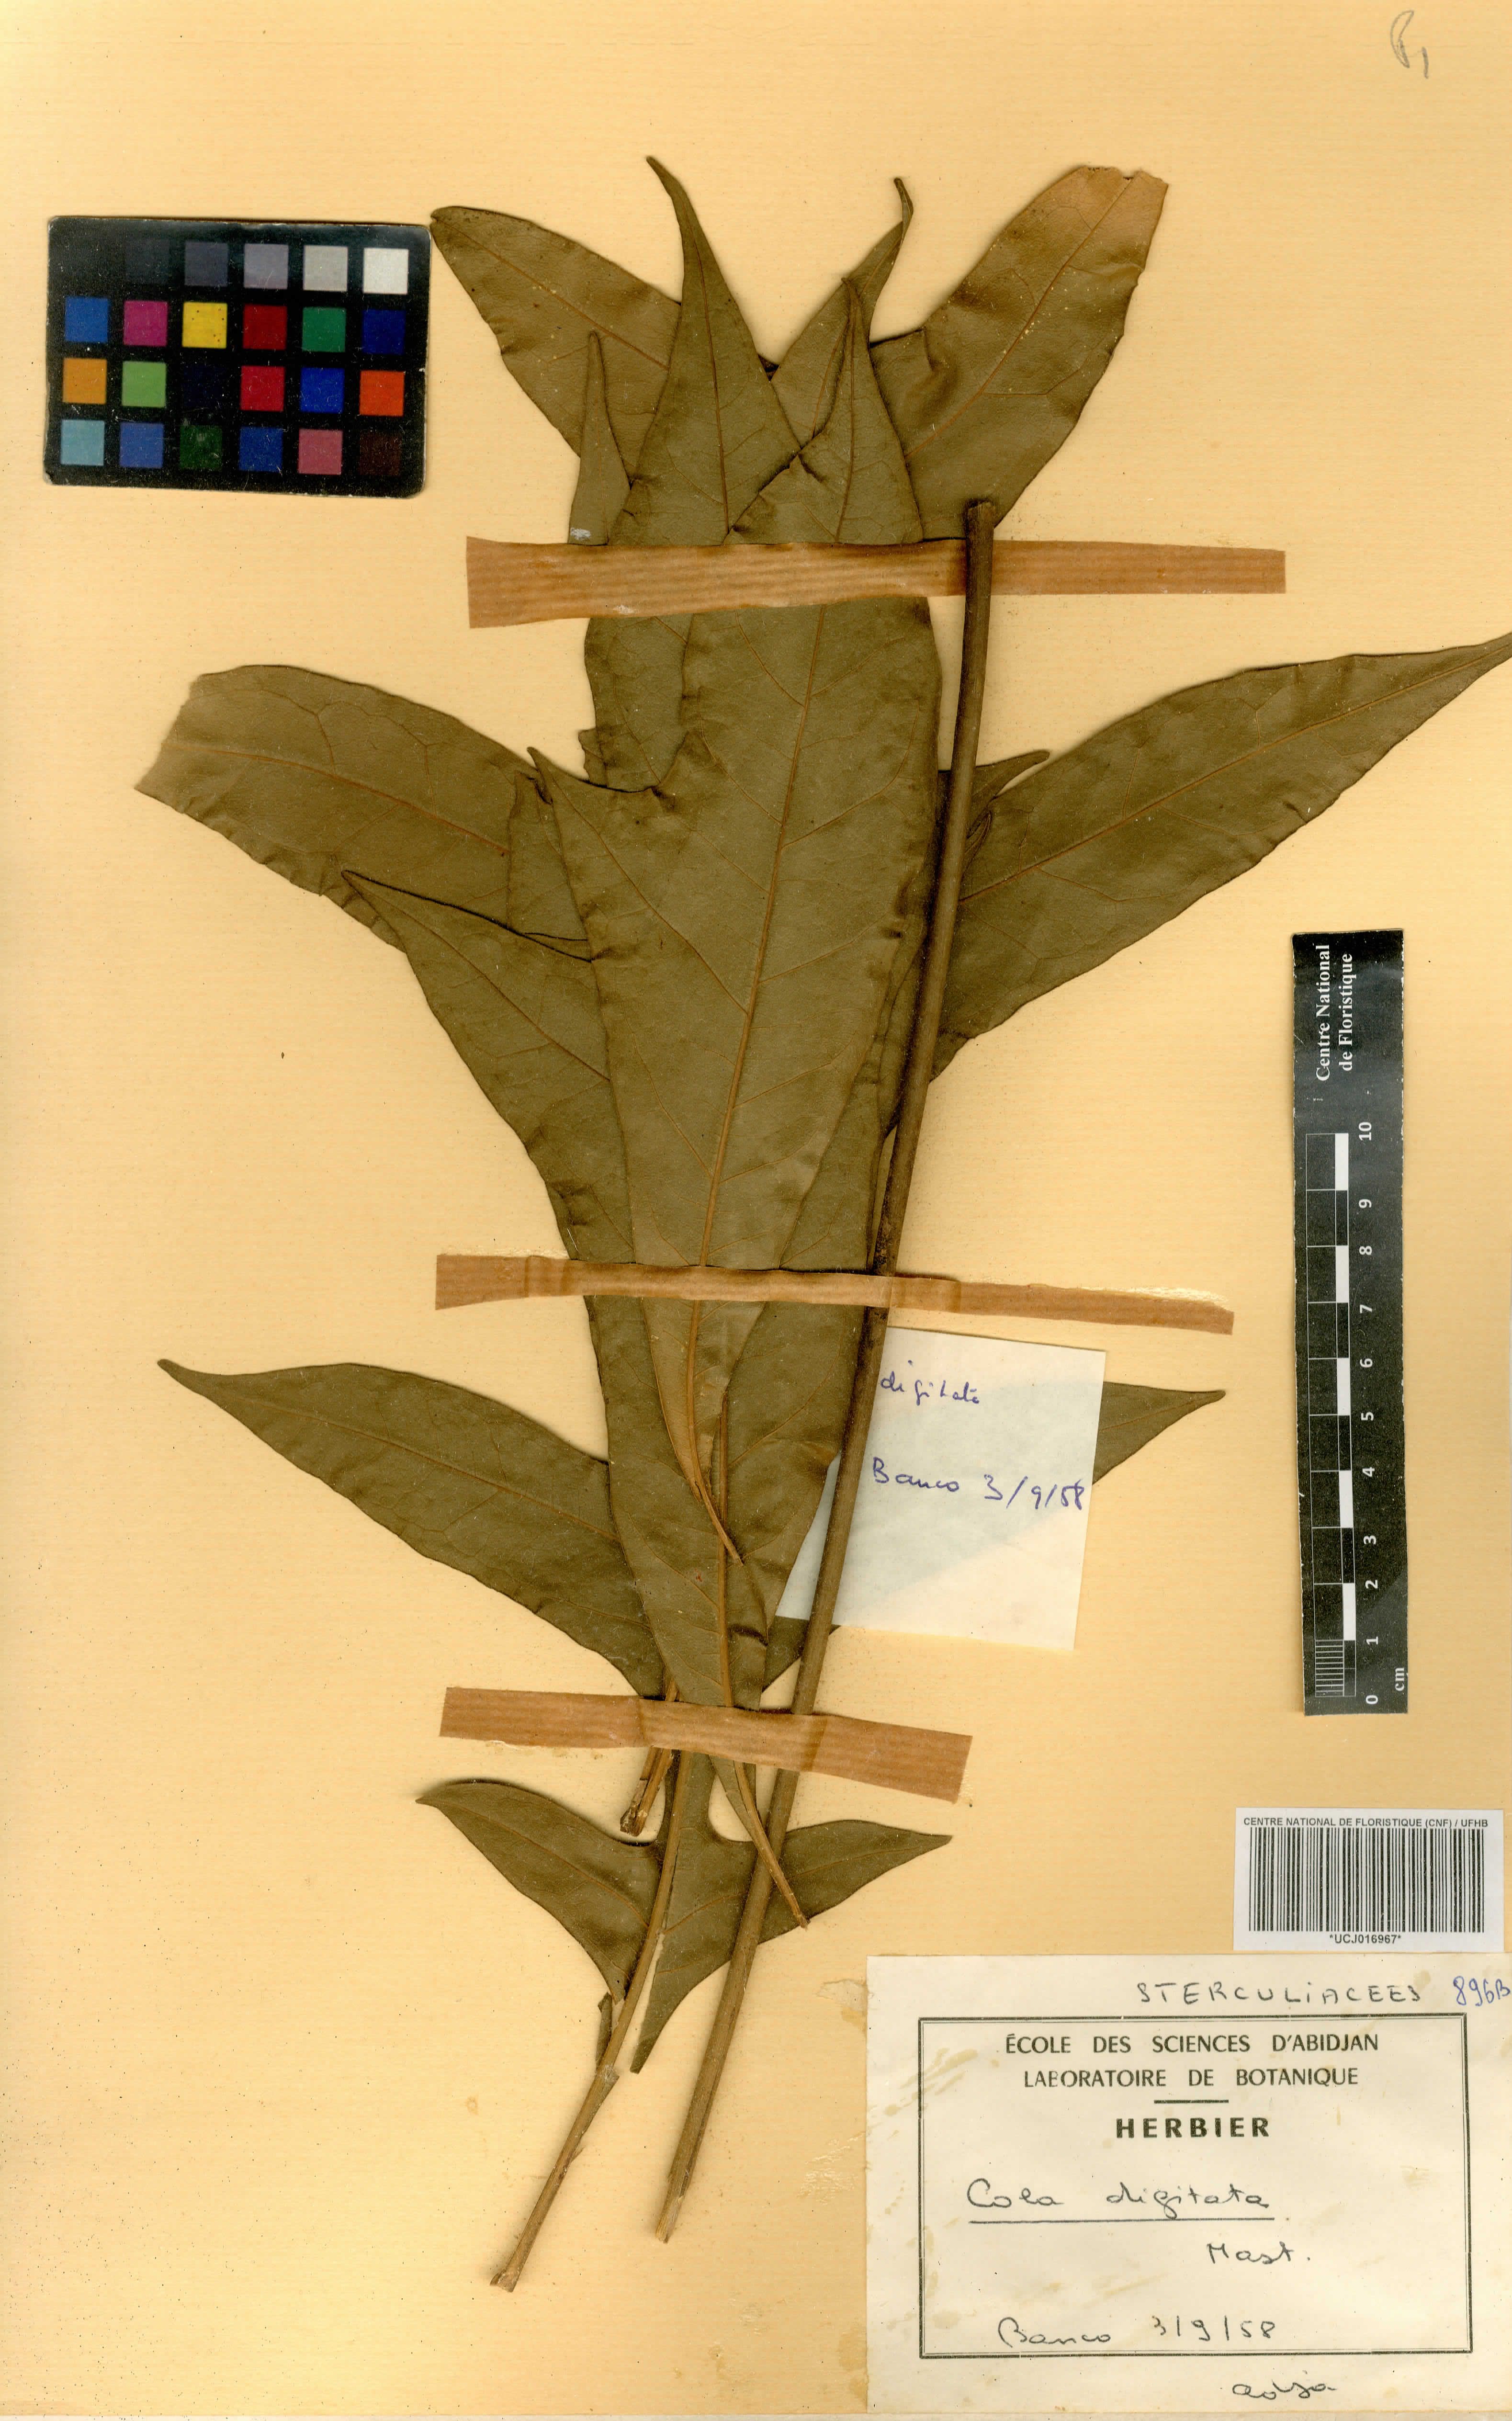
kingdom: Plantae
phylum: Tracheophyta
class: Magnoliopsida
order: Malvales
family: Malvaceae
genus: Cola
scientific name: Cola digitata
